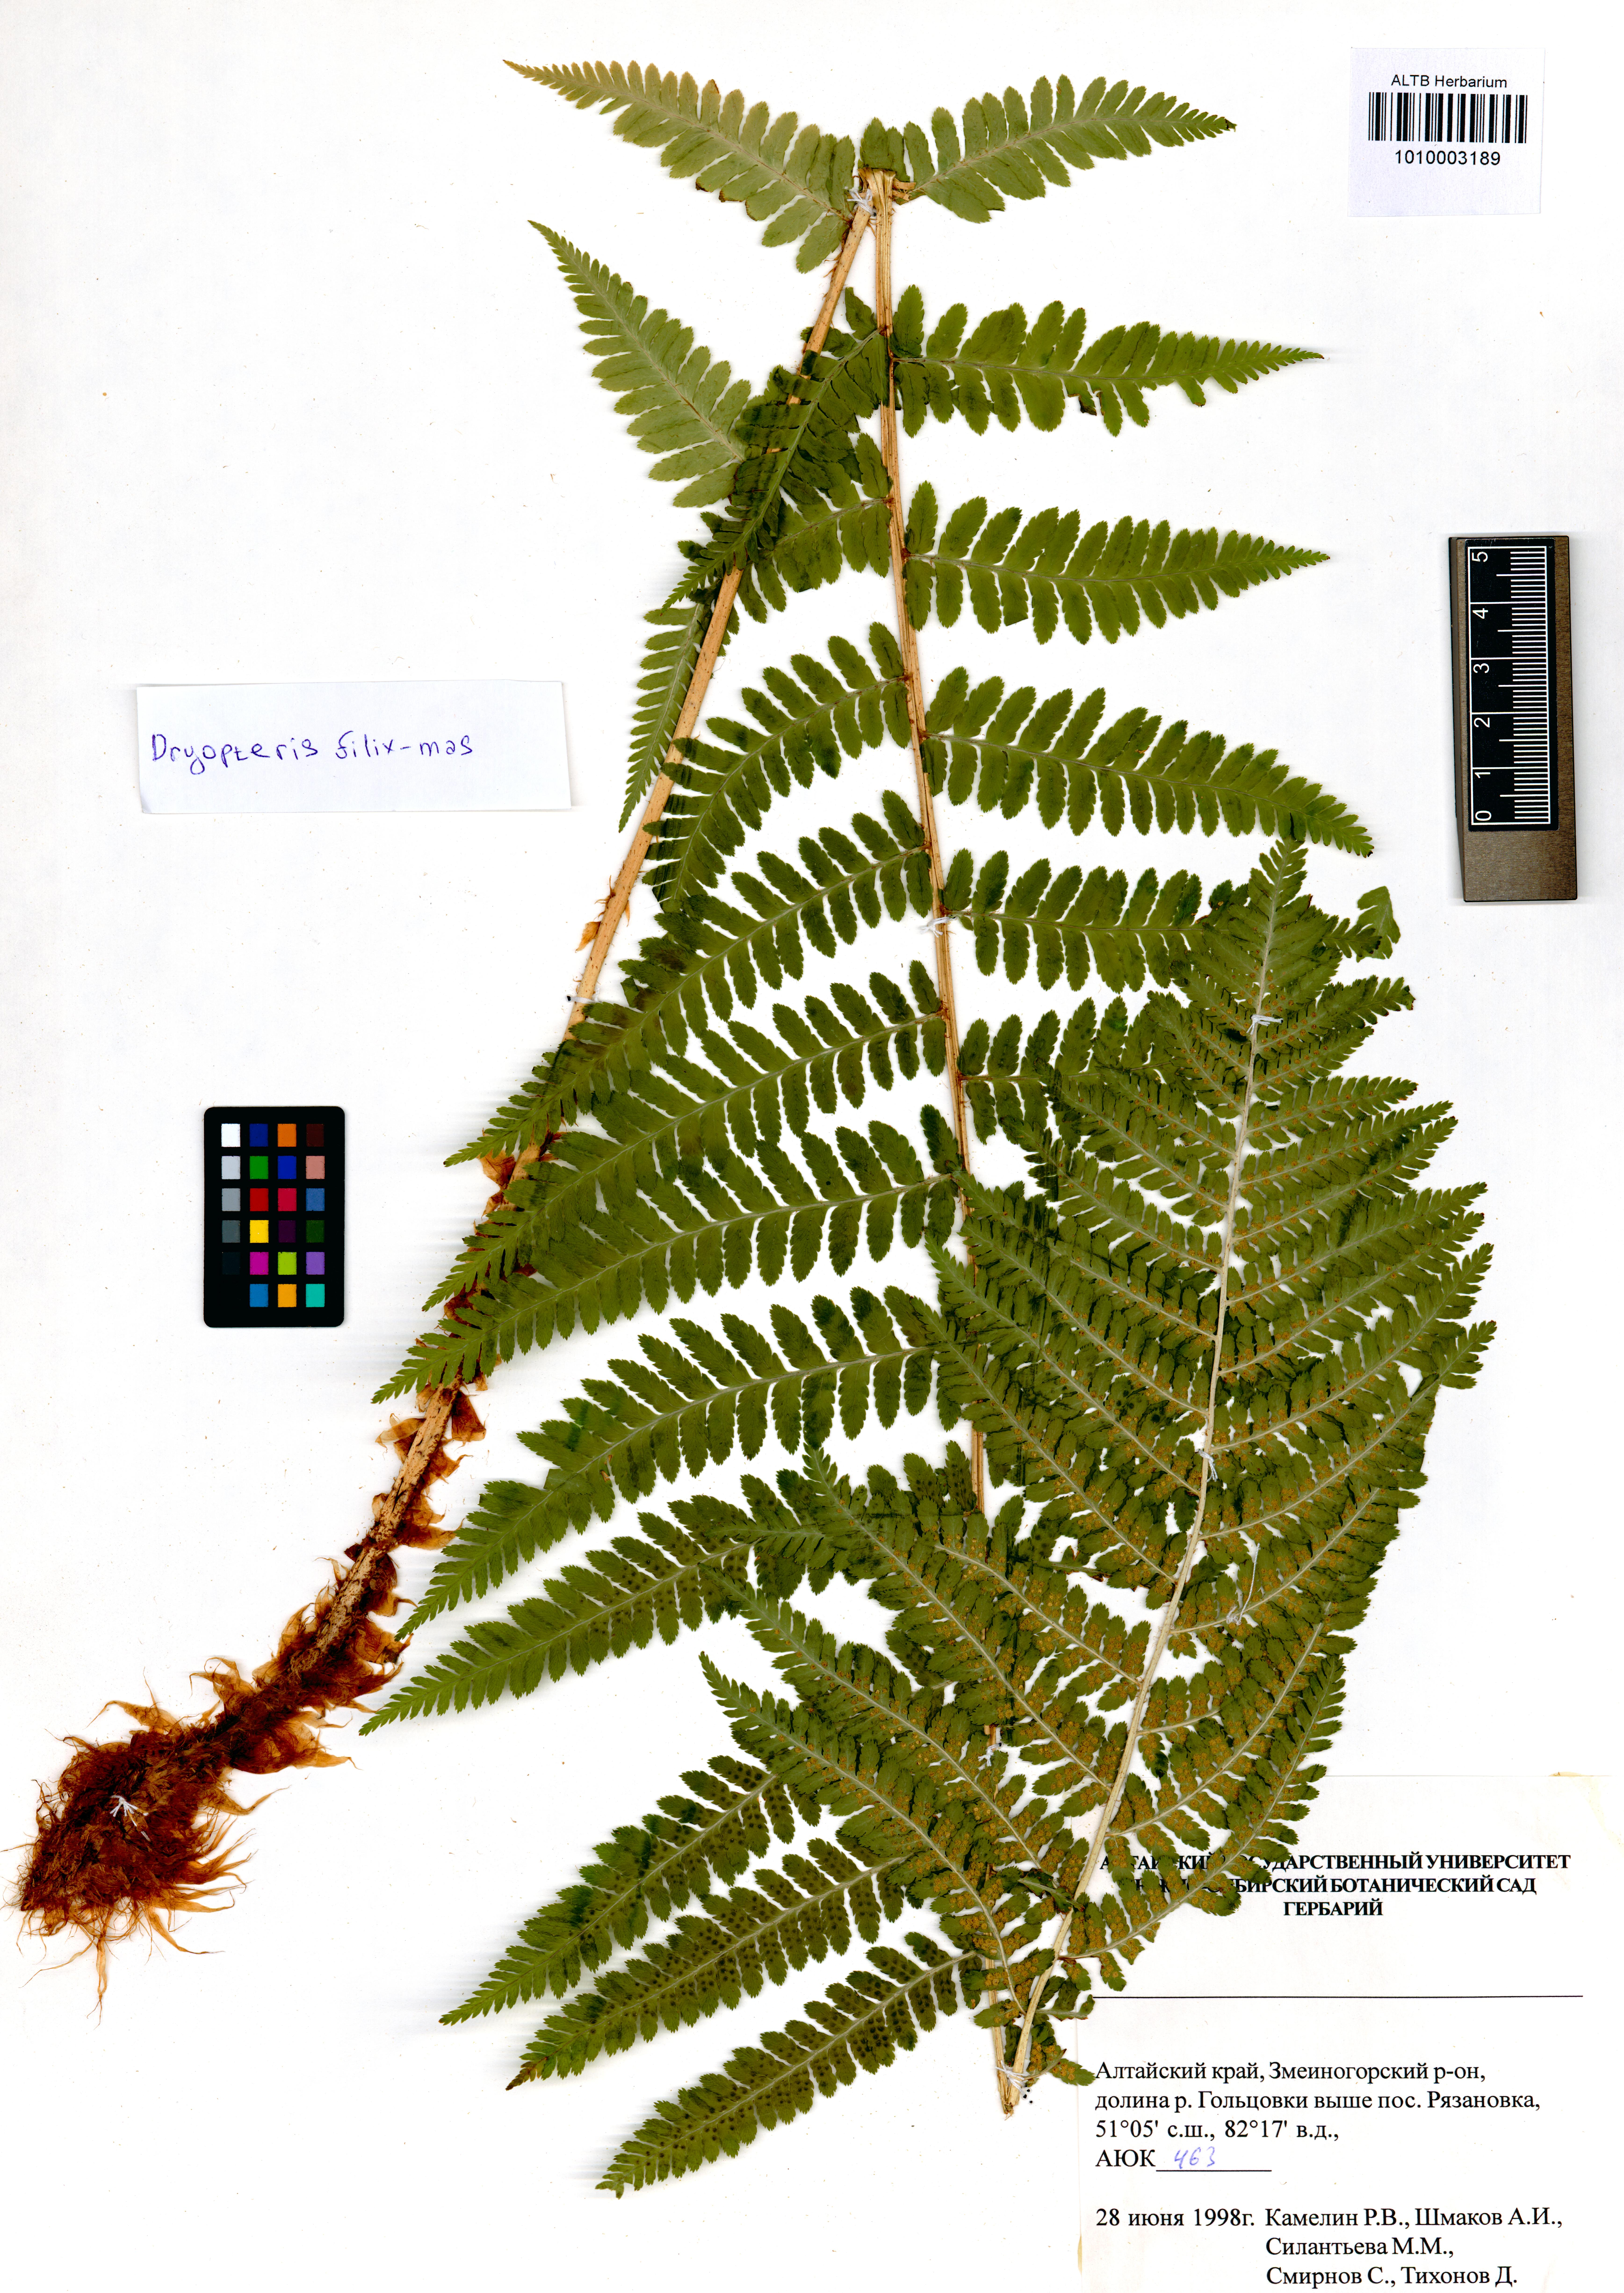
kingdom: Plantae
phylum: Tracheophyta
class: Polypodiopsida
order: Polypodiales
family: Dryopteridaceae
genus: Dryopteris
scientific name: Dryopteris filix-mas
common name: Male fern
